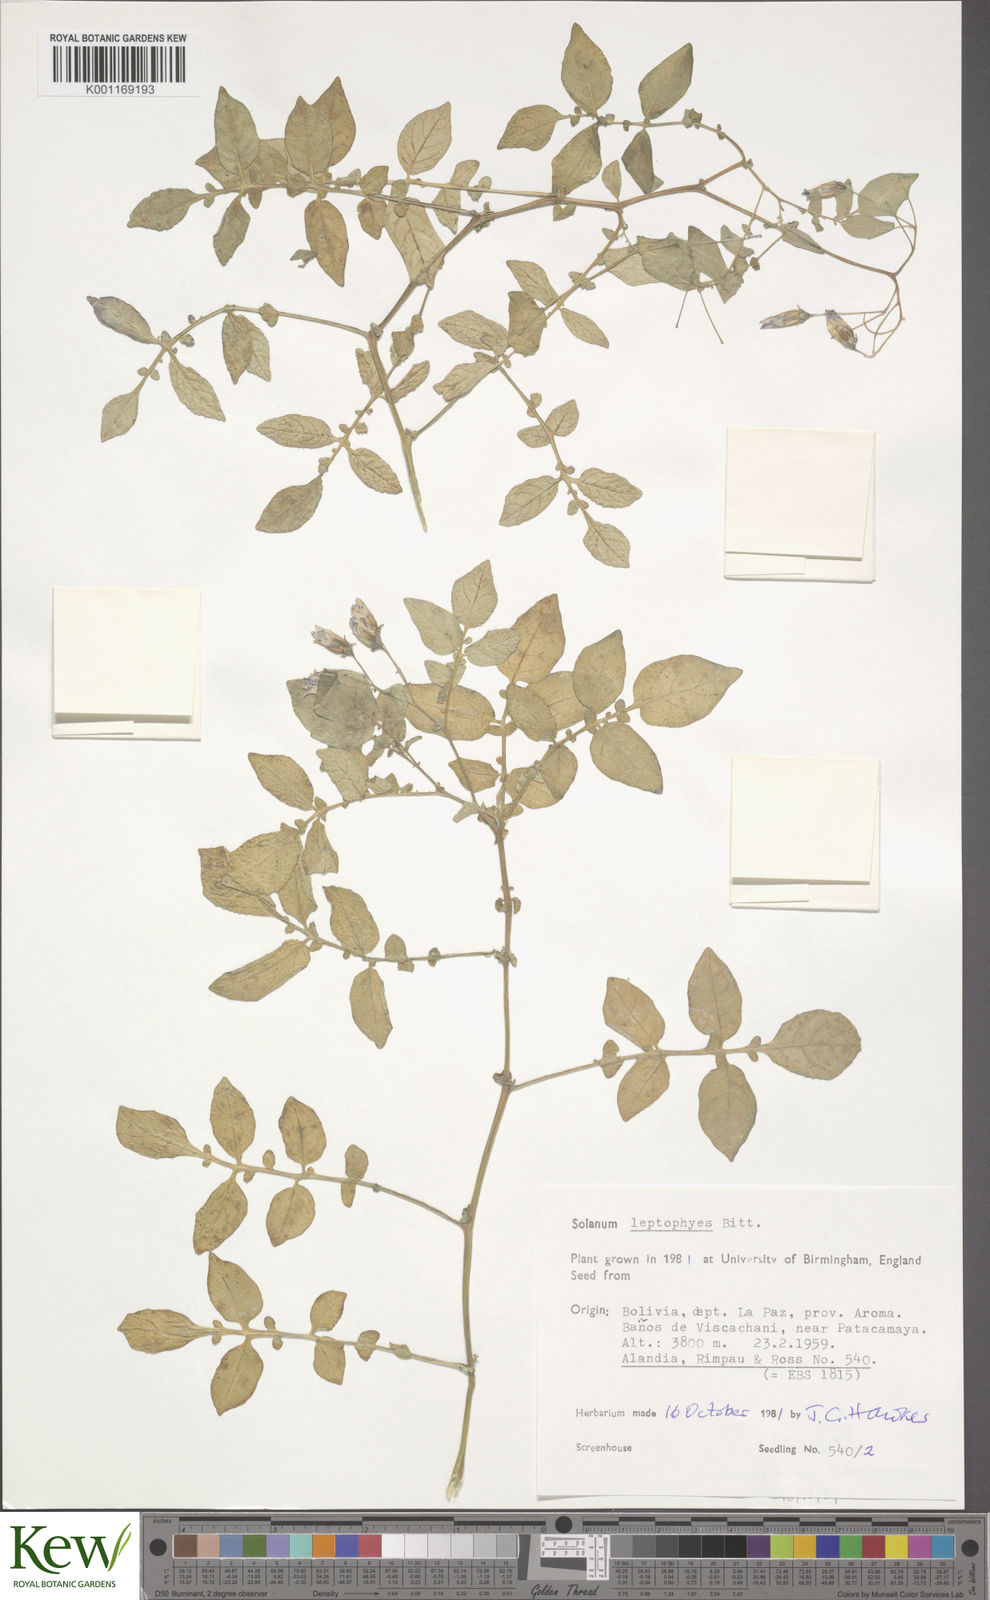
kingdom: Plantae
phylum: Tracheophyta
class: Magnoliopsida
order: Solanales
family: Solanaceae
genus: Solanum
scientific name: Solanum brevicaule
